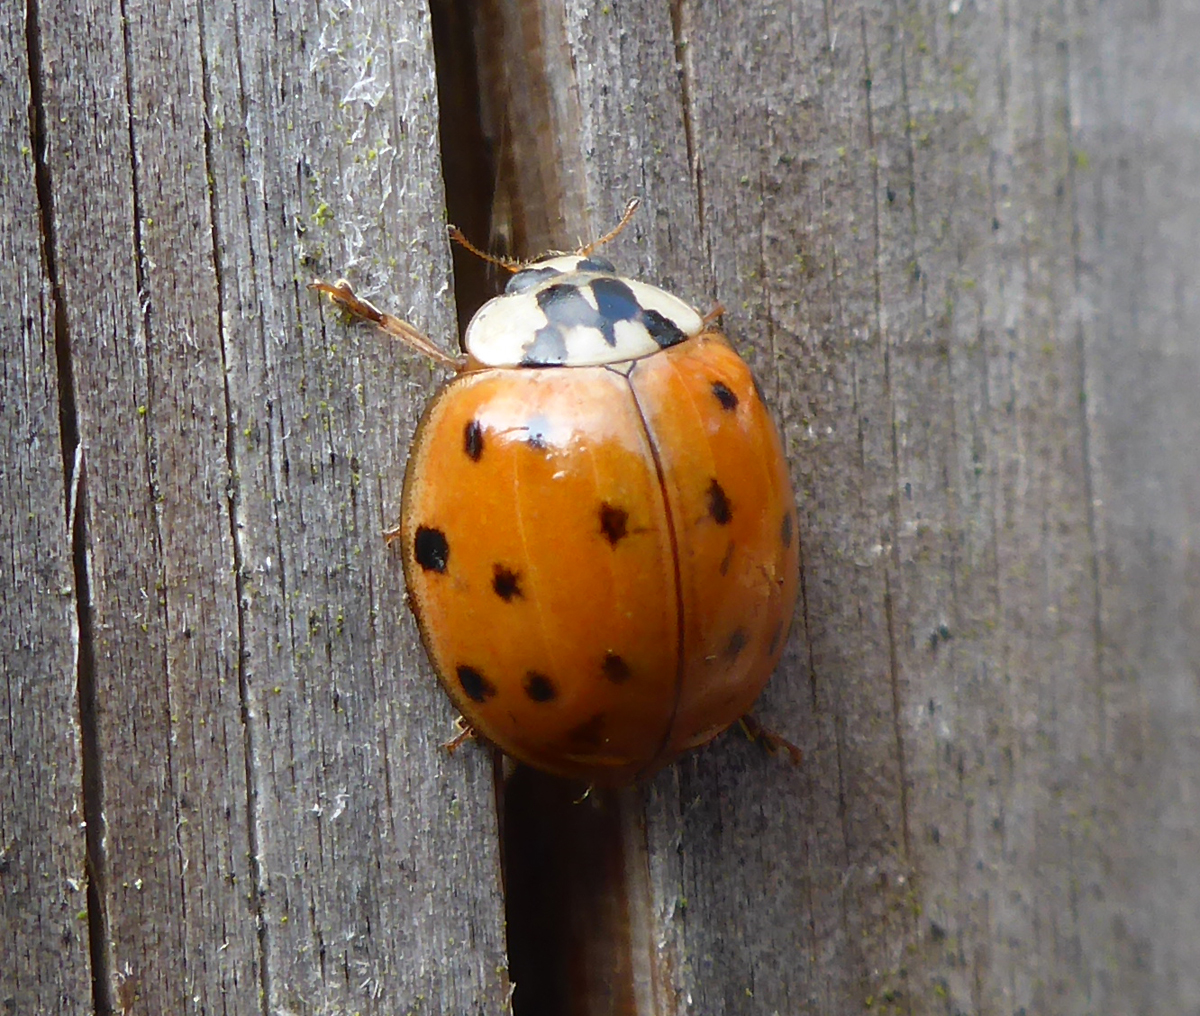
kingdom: Animalia
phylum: Arthropoda
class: Insecta
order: Coleoptera
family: Coccinellidae
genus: Harmonia
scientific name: Harmonia axyridis
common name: Harlequin ladybird
